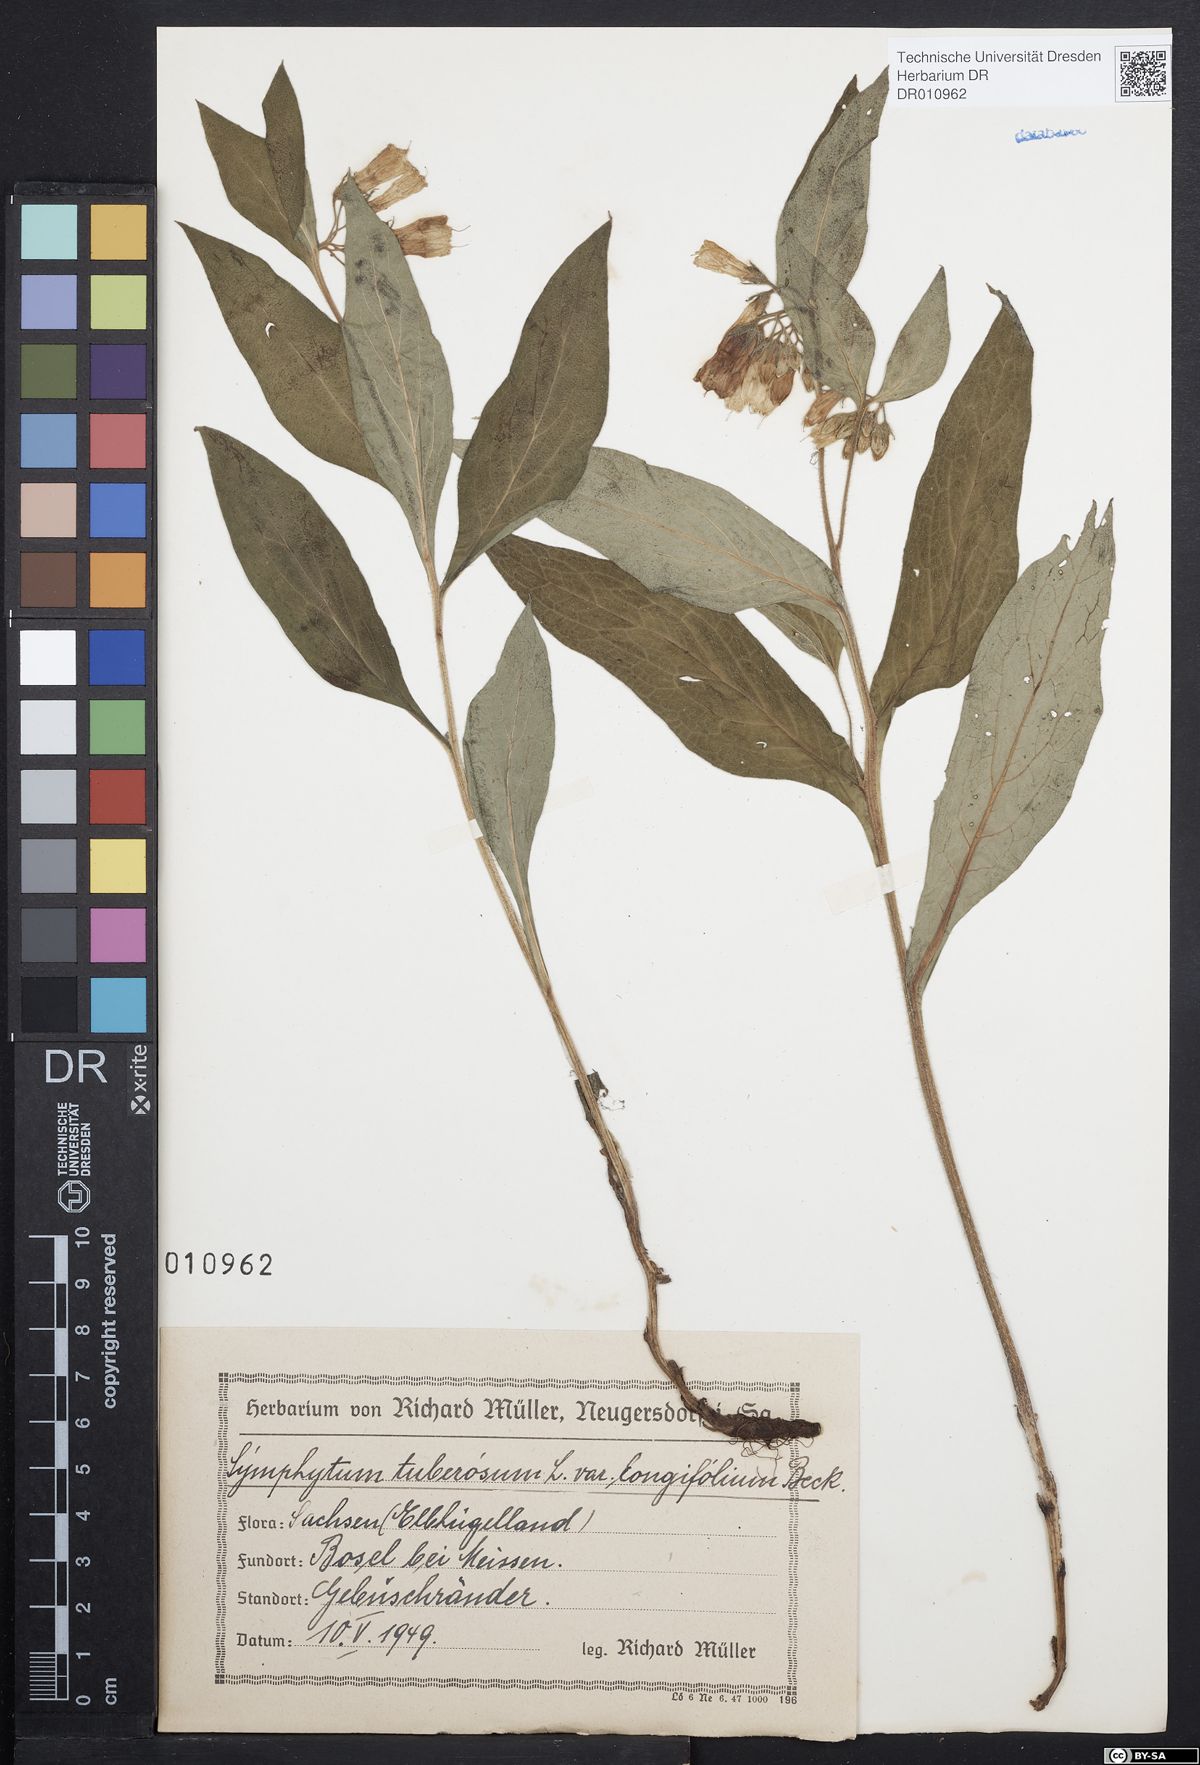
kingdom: Plantae
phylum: Tracheophyta
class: Magnoliopsida
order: Boraginales
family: Boraginaceae
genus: Symphytum
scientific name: Symphytum tuberosum
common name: Tuberous comfrey
